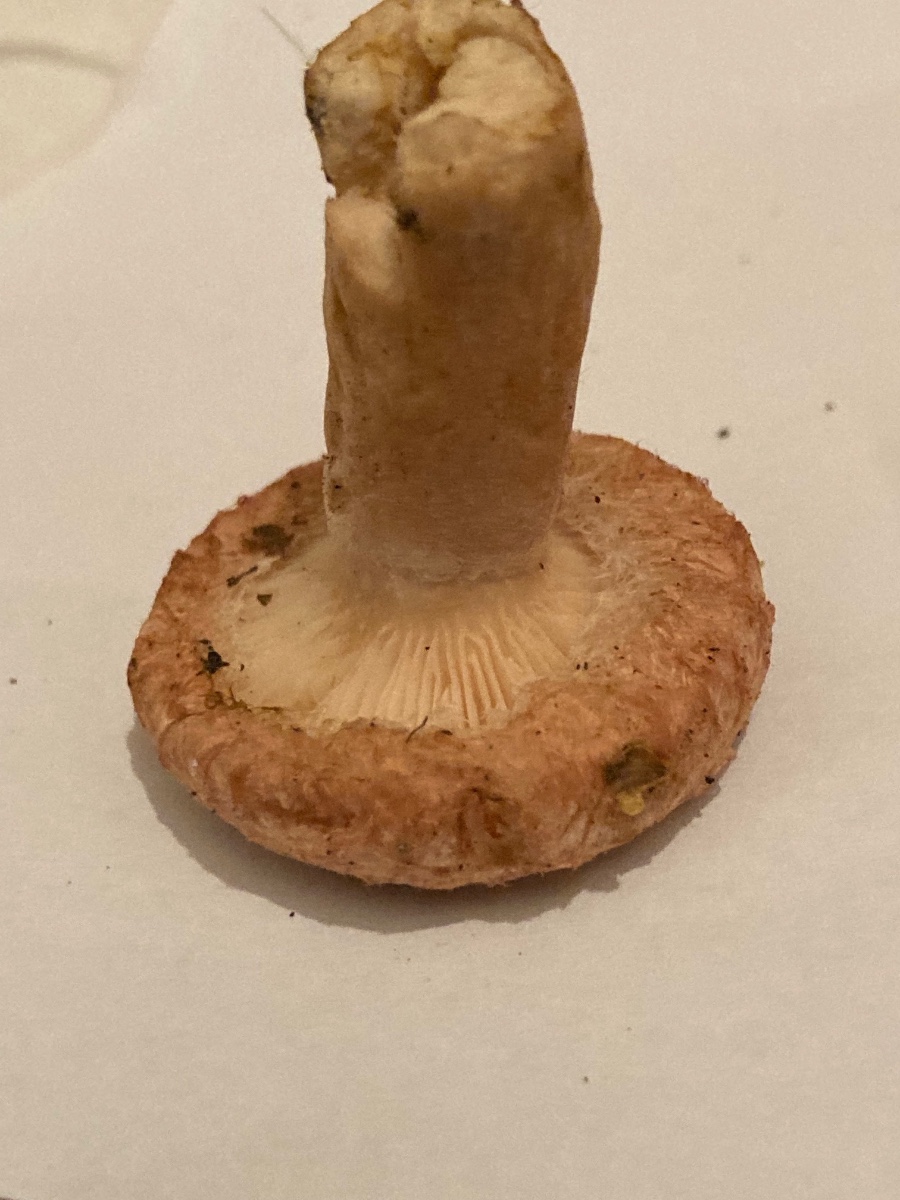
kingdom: Fungi
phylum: Basidiomycota
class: Agaricomycetes
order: Russulales
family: Russulaceae
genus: Lactarius
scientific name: Lactarius torminosus
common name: skægget mælkehat
